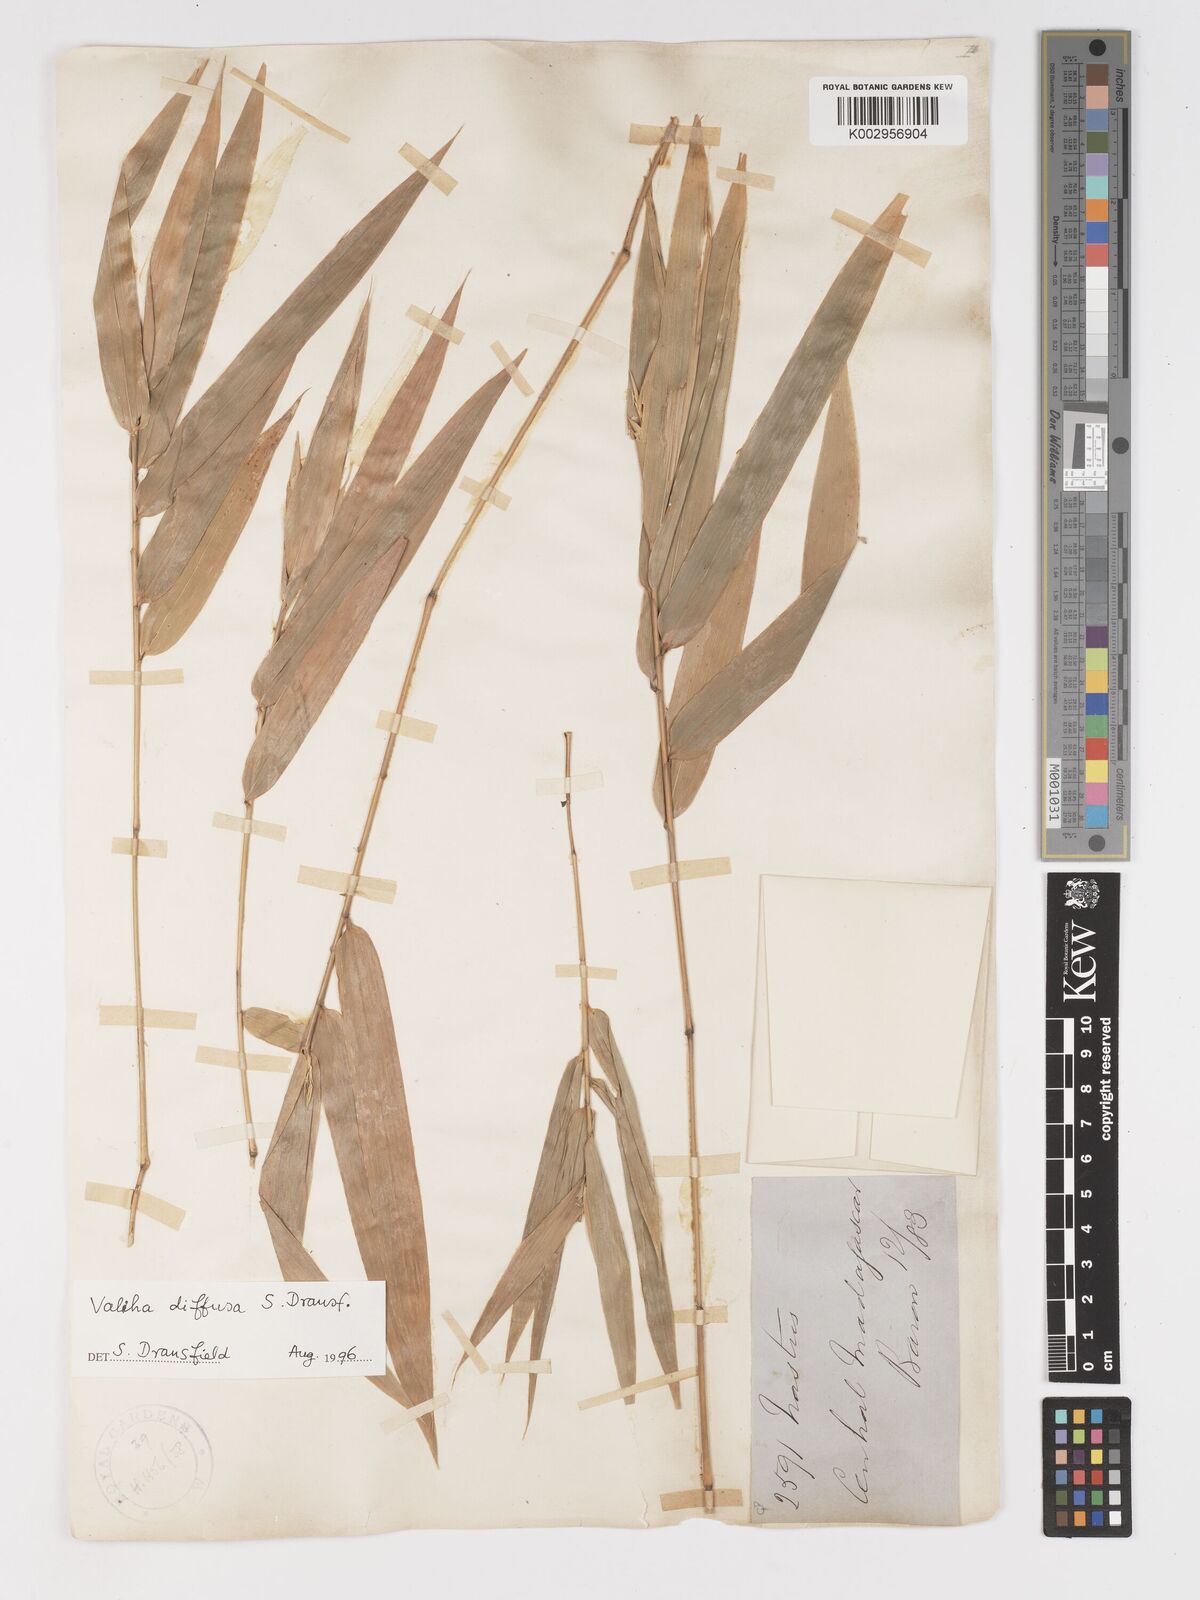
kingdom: Plantae
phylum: Tracheophyta
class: Liliopsida
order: Poales
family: Poaceae
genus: Valiha
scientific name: Valiha diffusa
